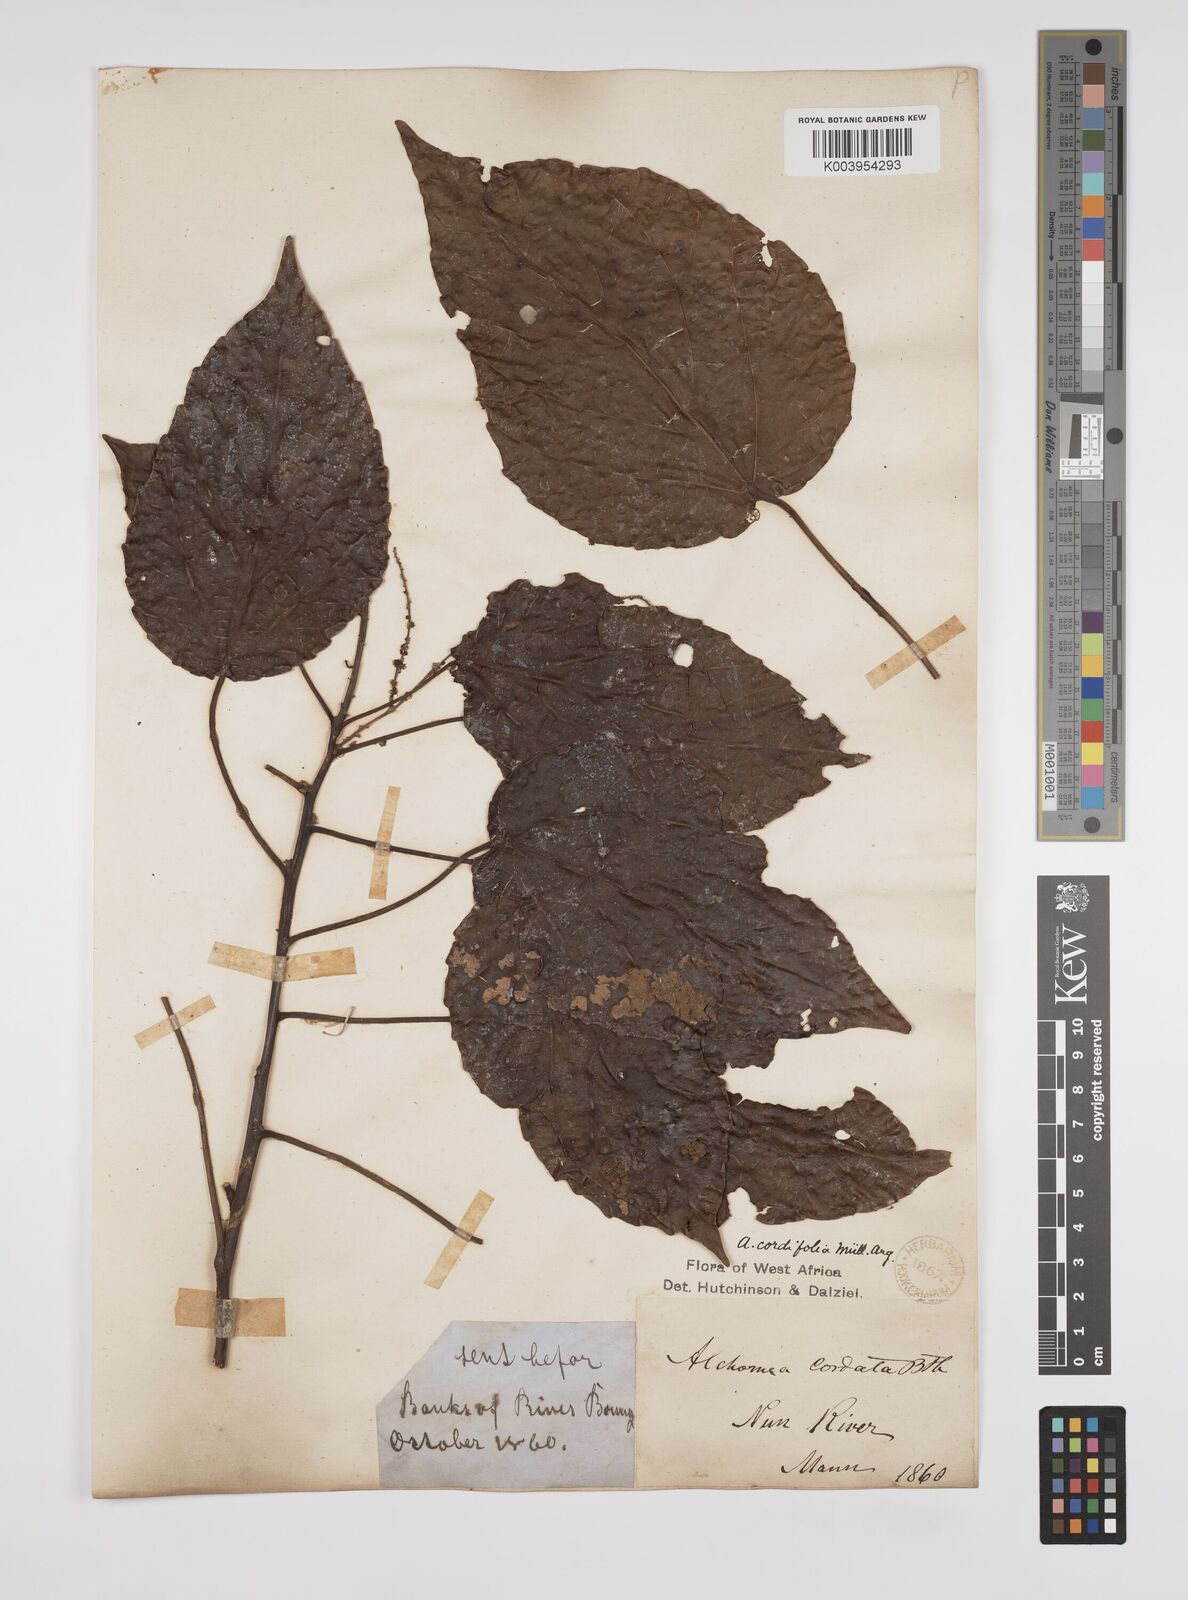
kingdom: Plantae
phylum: Tracheophyta
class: Magnoliopsida
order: Malpighiales
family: Euphorbiaceae
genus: Alchornea
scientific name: Alchornea cordifolia
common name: Christmasbush
